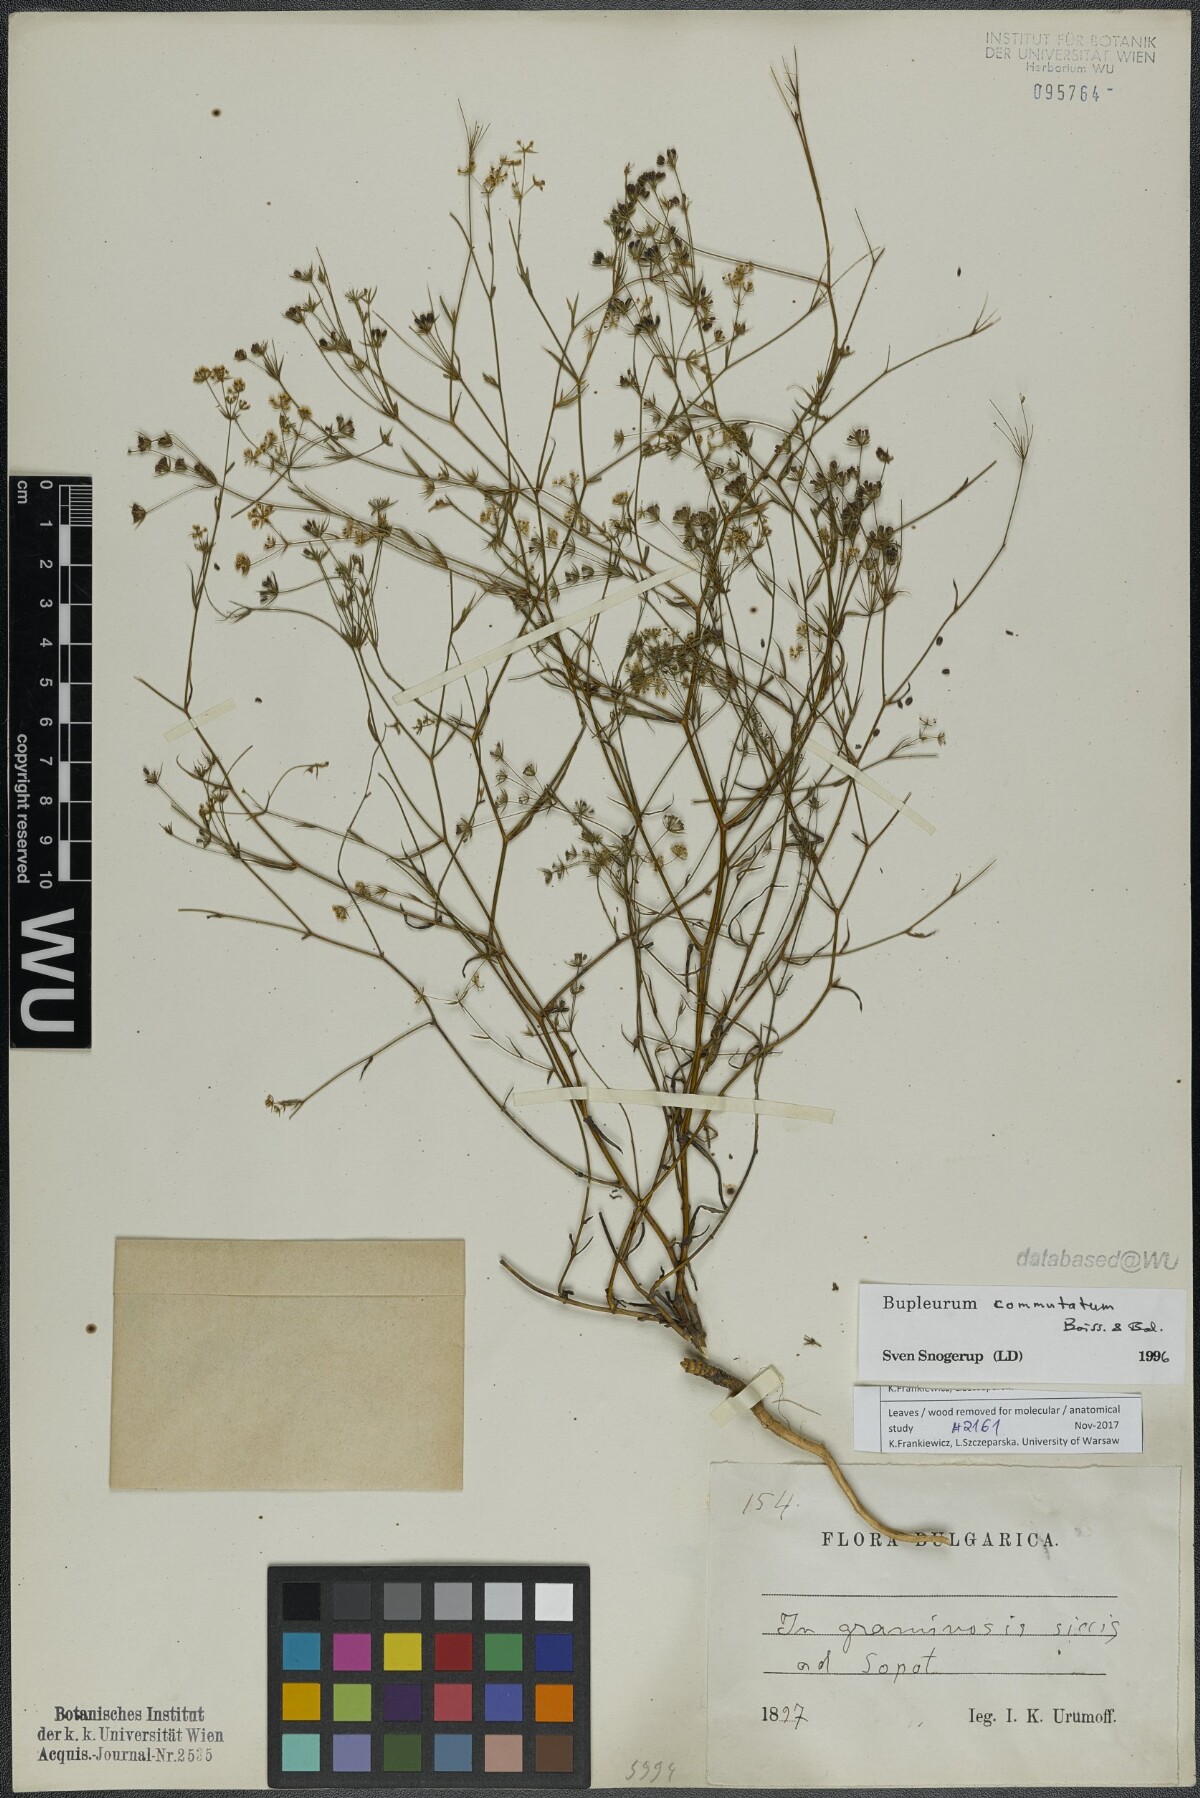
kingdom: Plantae
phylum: Tracheophyta
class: Magnoliopsida
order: Apiales
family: Apiaceae
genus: Bupleurum
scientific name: Bupleurum commutatum
